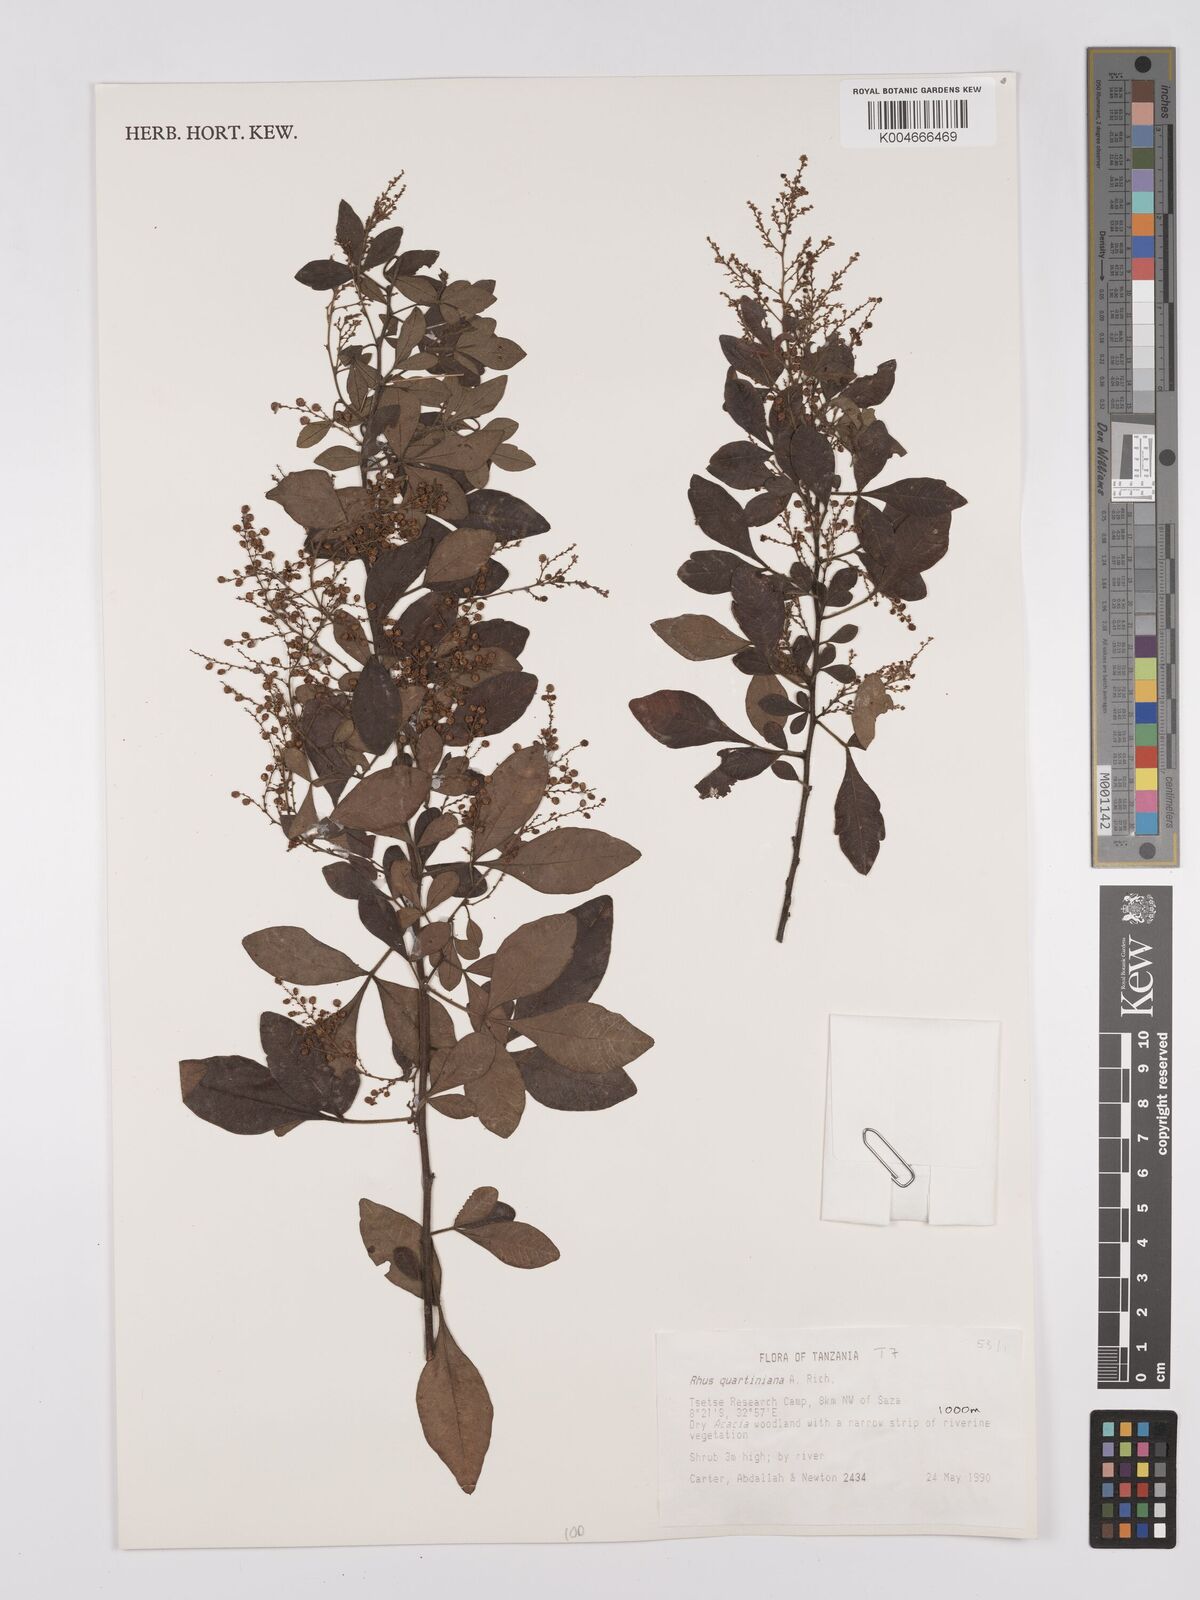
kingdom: Plantae
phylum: Tracheophyta
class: Magnoliopsida
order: Sapindales
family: Anacardiaceae
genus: Searsia
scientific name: Searsia quartiniana
